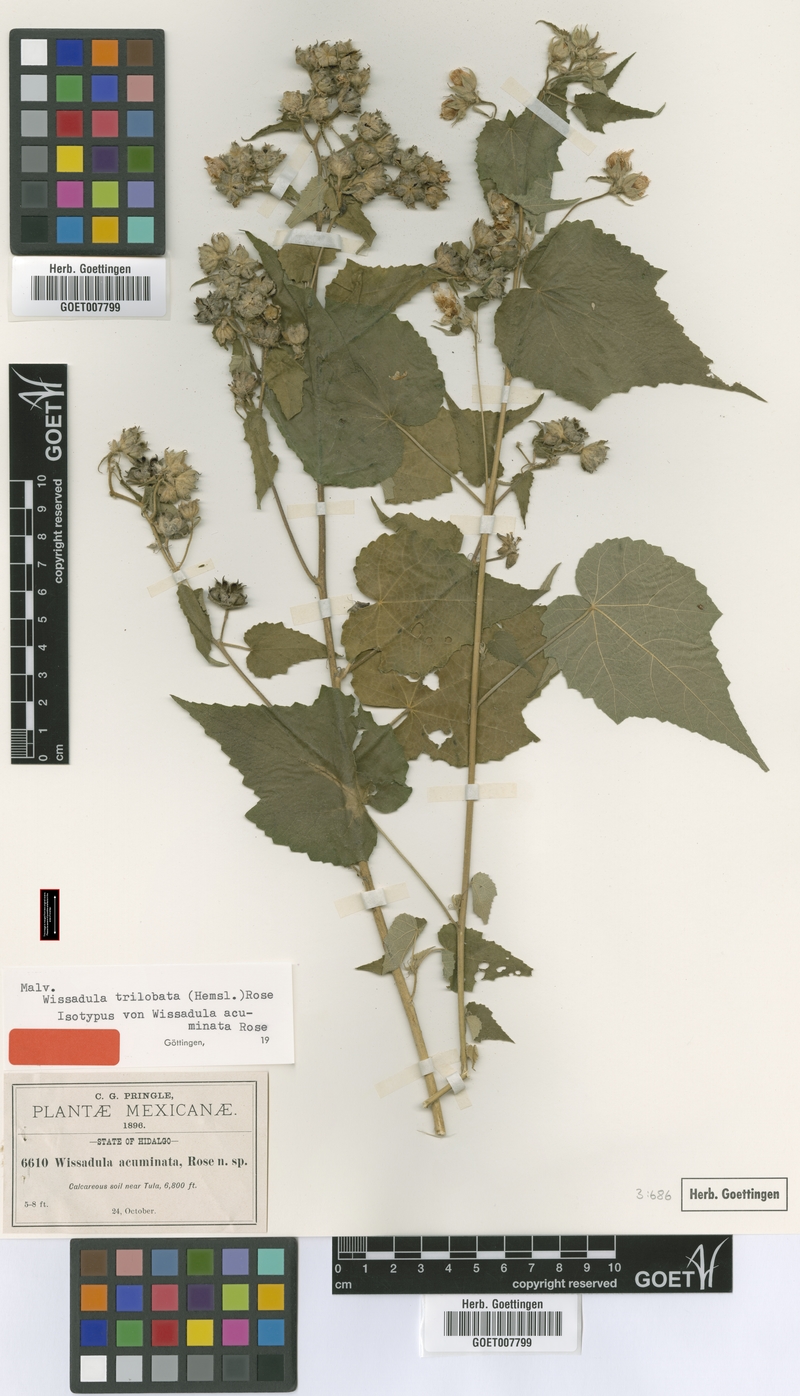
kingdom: Plantae
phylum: Tracheophyta
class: Magnoliopsida
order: Malvales
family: Malvaceae
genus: Allowissadula
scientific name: Allowissadula sessei
